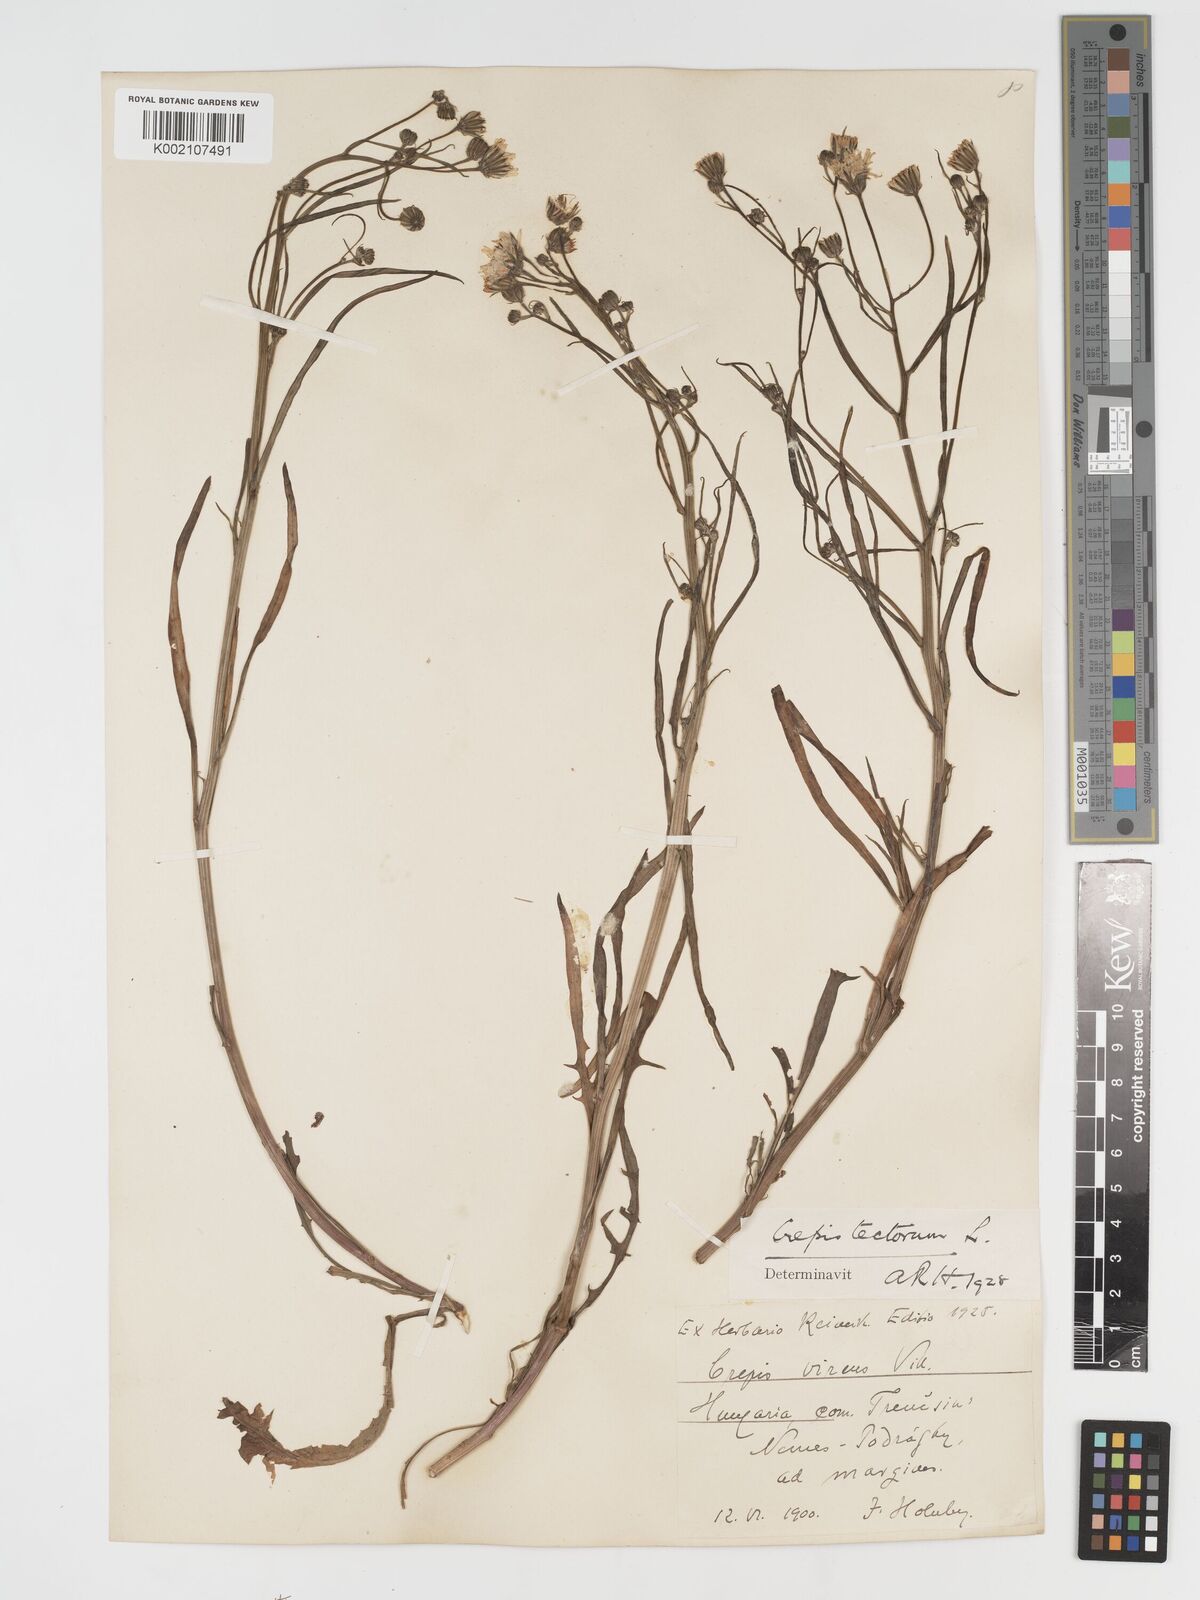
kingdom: Plantae
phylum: Tracheophyta
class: Magnoliopsida
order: Asterales
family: Asteraceae
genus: Crepis
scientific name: Crepis tectorum
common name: Narrow-leaved hawk's-beard
